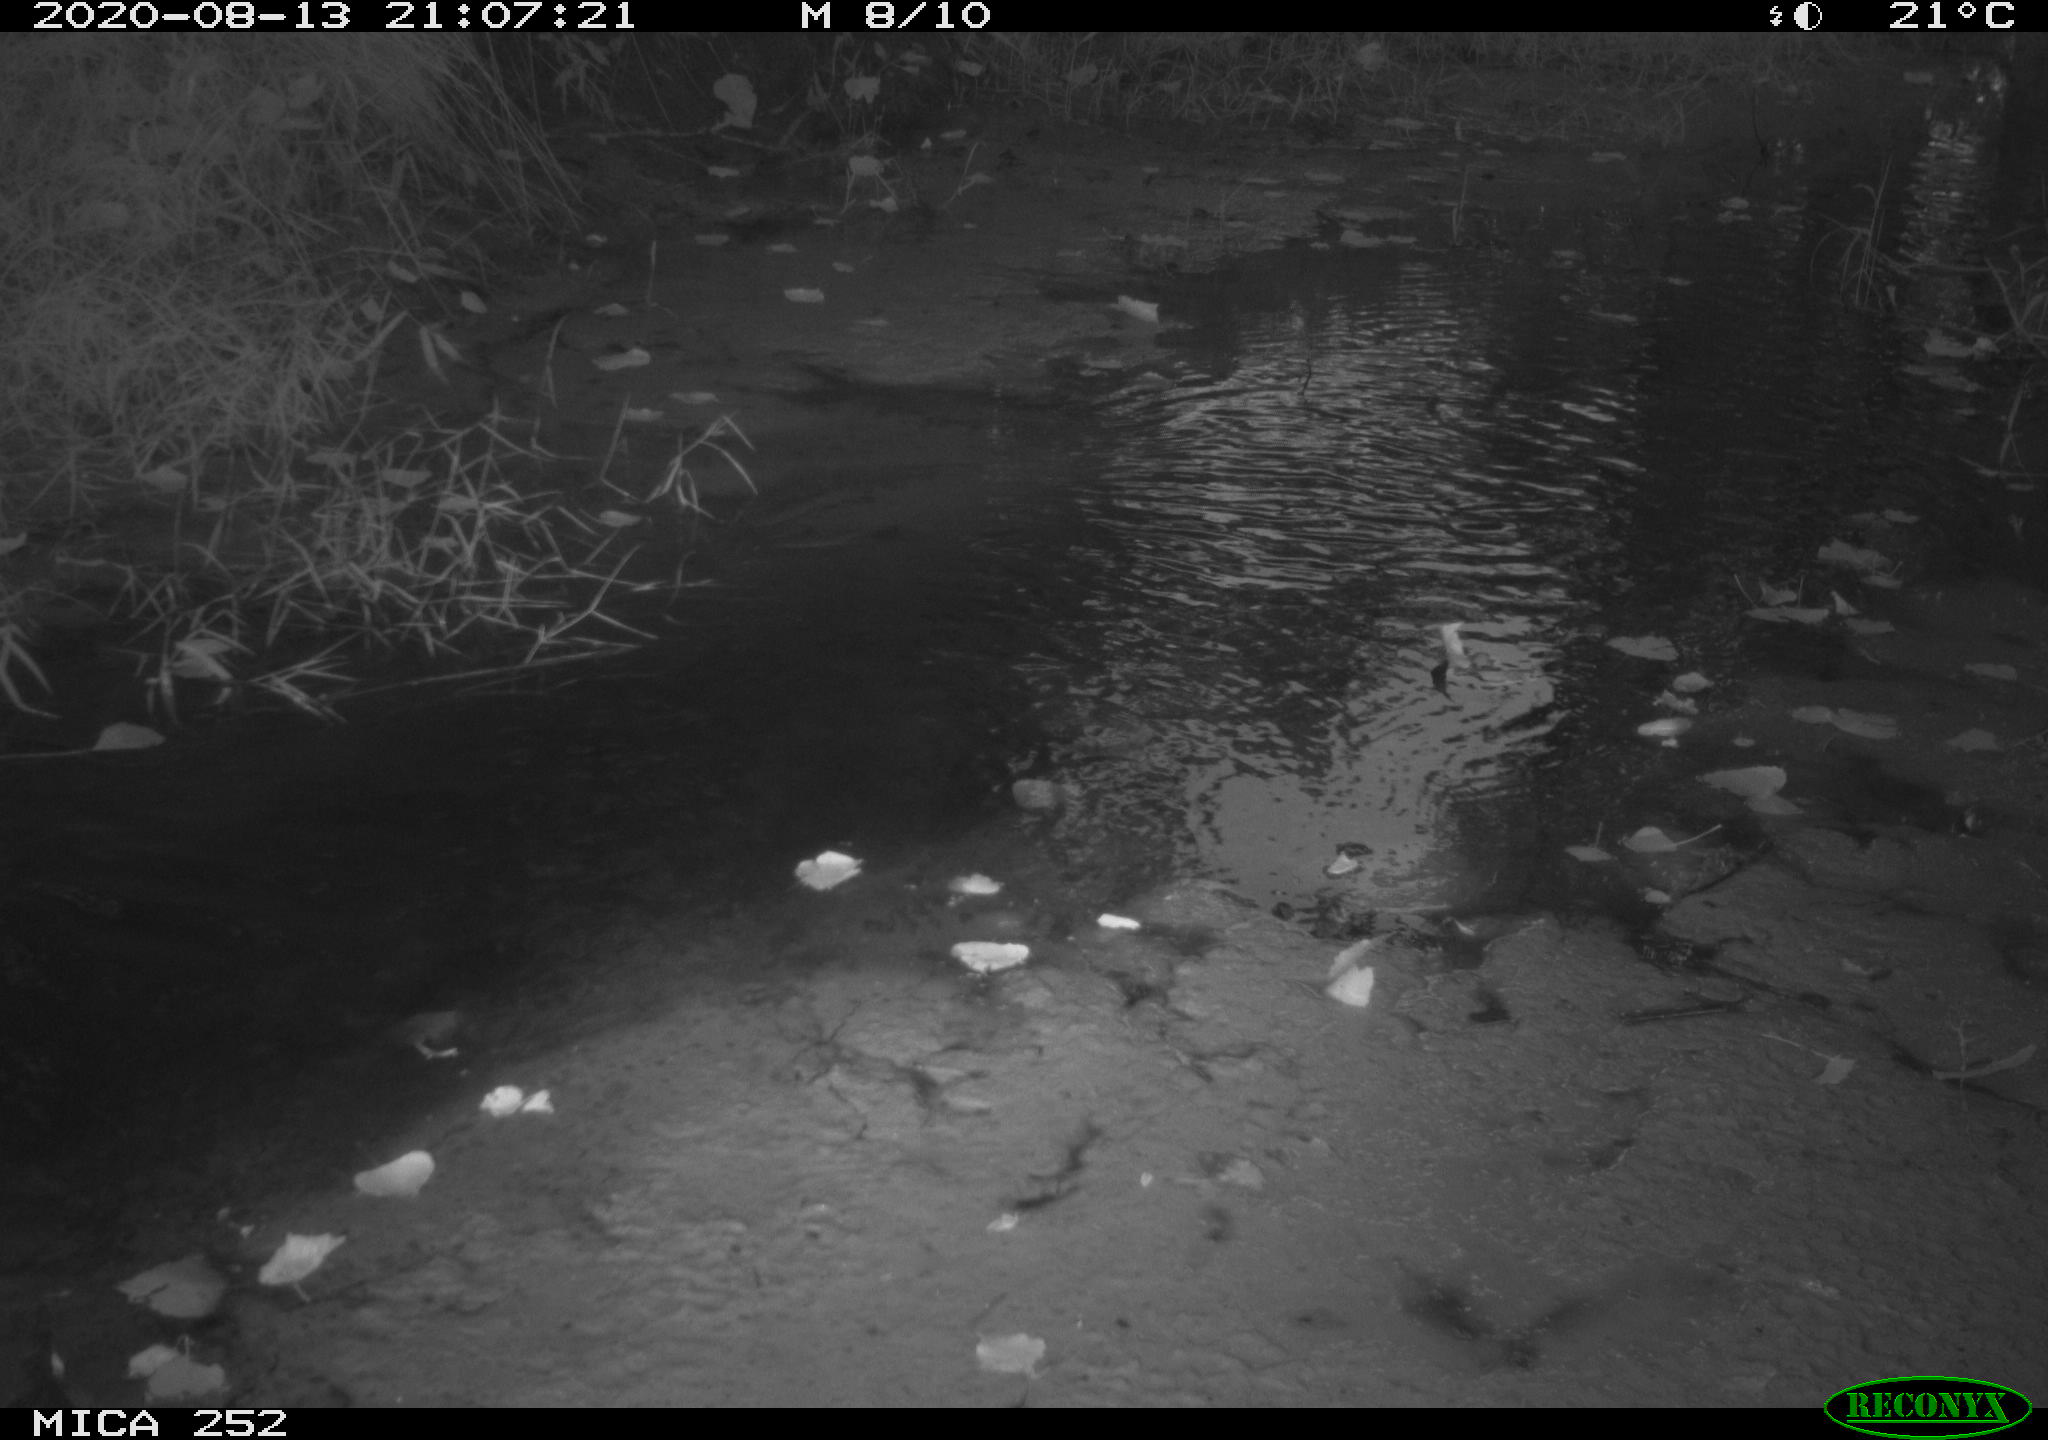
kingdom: Animalia
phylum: Chordata
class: Aves
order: Anseriformes
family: Anatidae
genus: Aix
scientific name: Aix galericulata
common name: Mandarin duck
